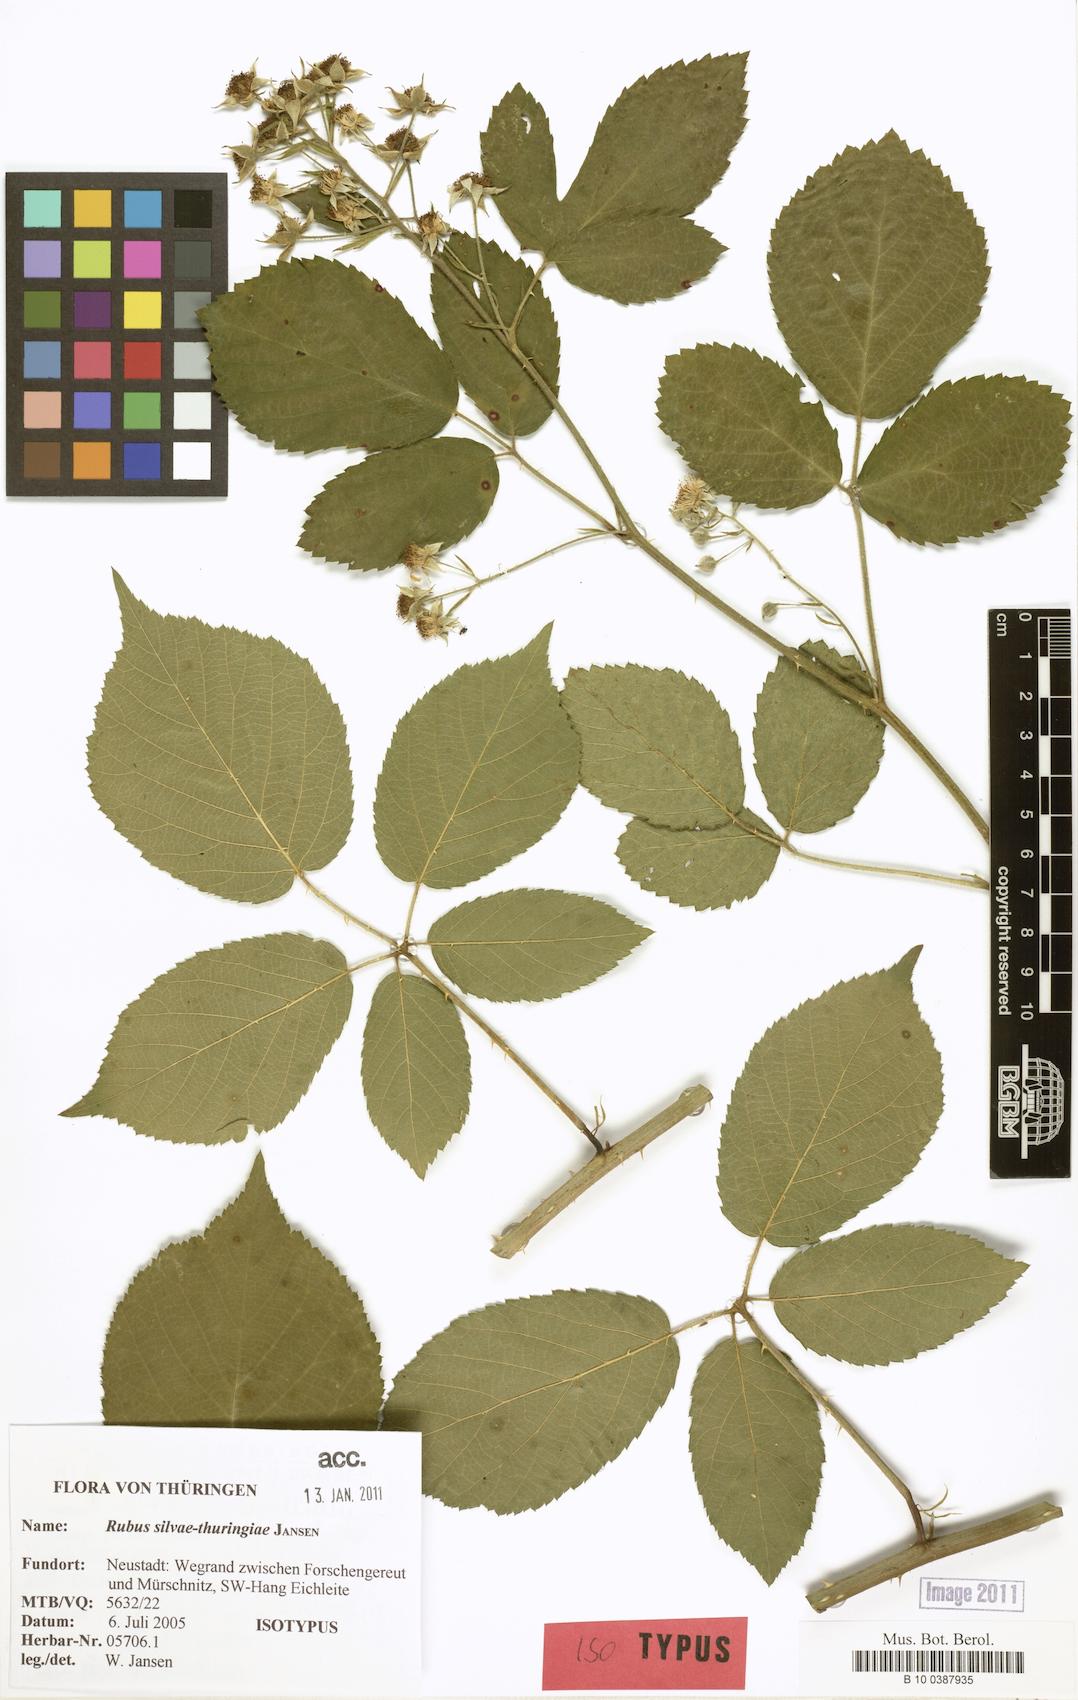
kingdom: Plantae
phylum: Tracheophyta
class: Magnoliopsida
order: Rosales
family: Rosaceae
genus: Rubus
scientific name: Rubus silvae-thuringiae
